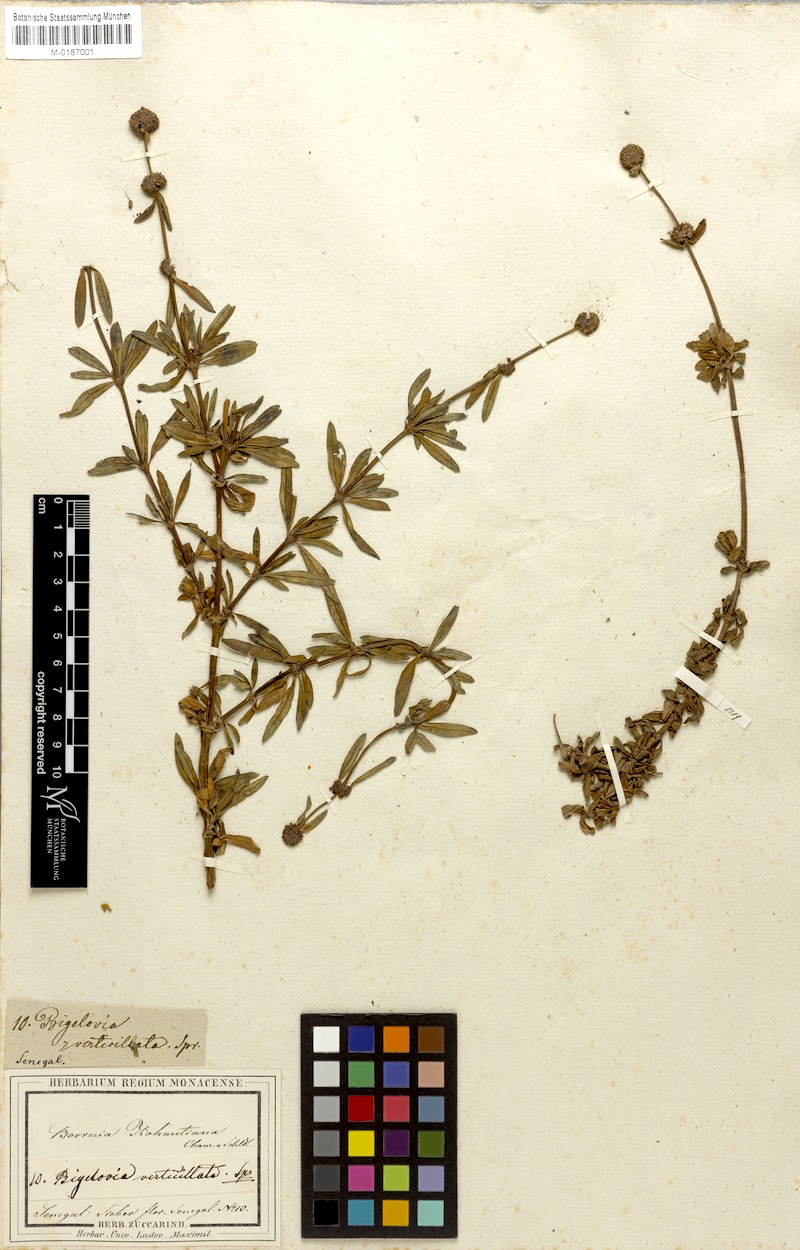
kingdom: Plantae
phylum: Tracheophyta
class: Magnoliopsida
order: Gentianales
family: Rubiaceae
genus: Spermacoce
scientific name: Spermacoce verticillata
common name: Shrubby false buttonweed
